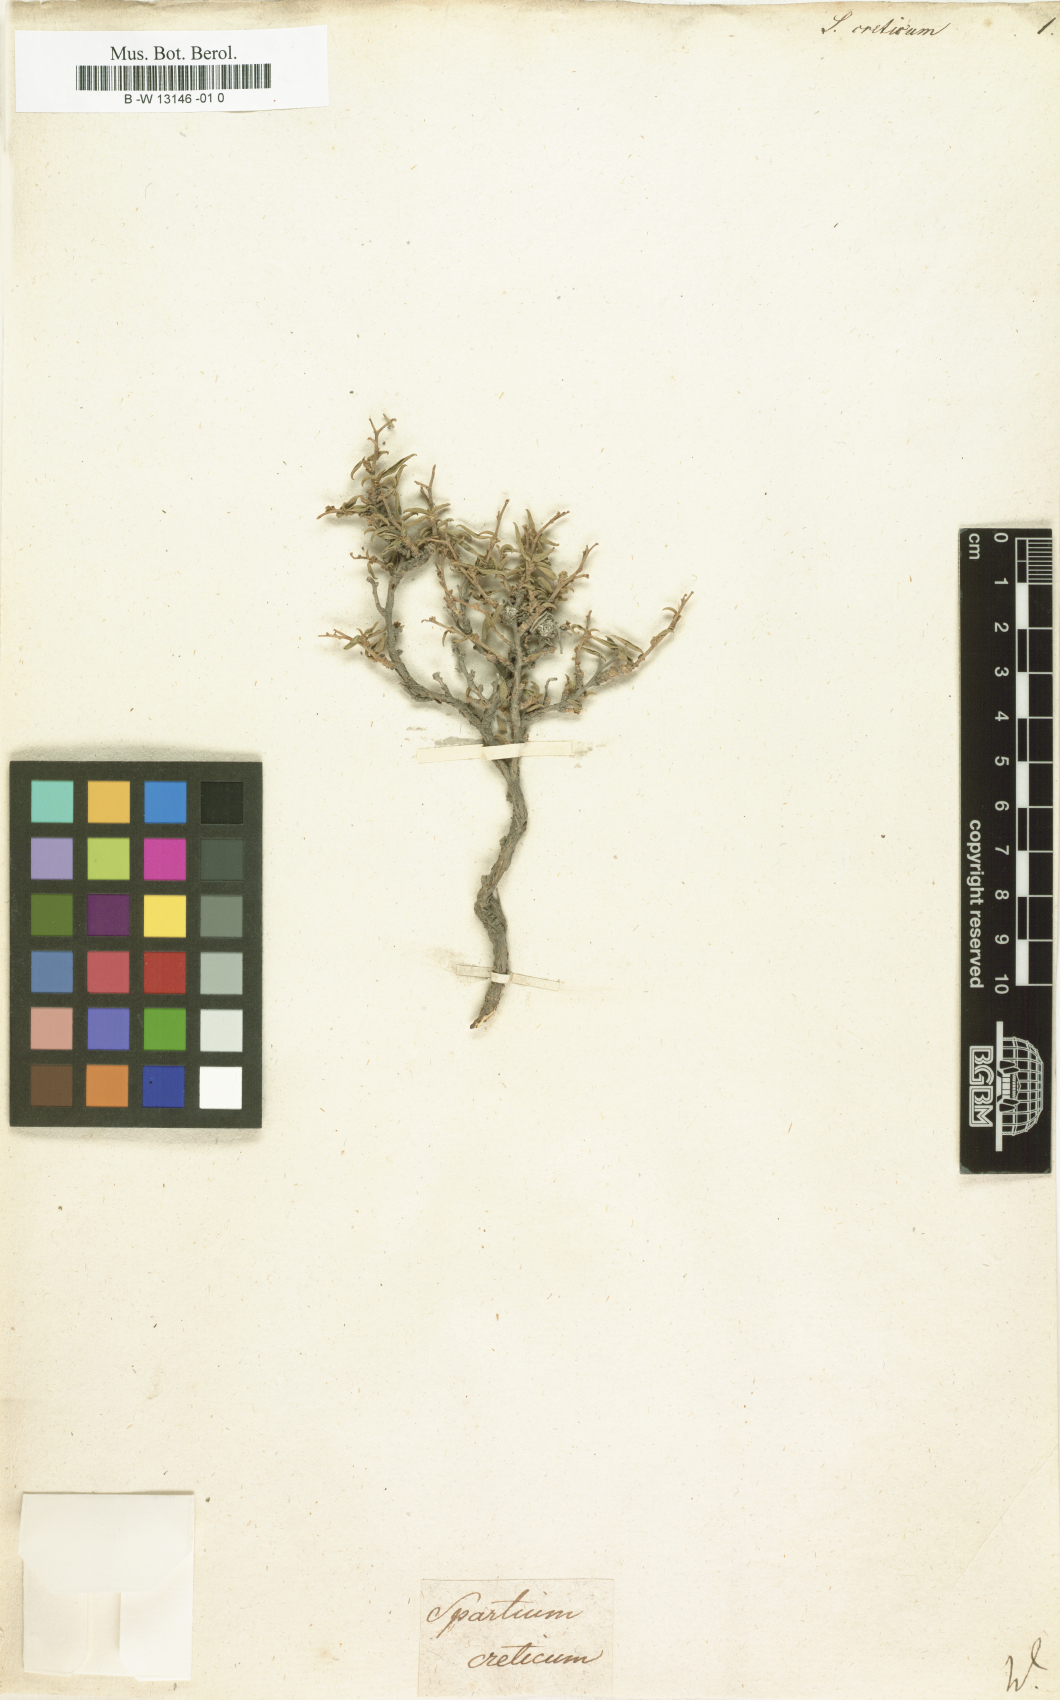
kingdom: Plantae
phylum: Tracheophyta
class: Magnoliopsida
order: Fabales
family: Fabaceae
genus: Anthyllis
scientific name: Anthyllis hermanniae
